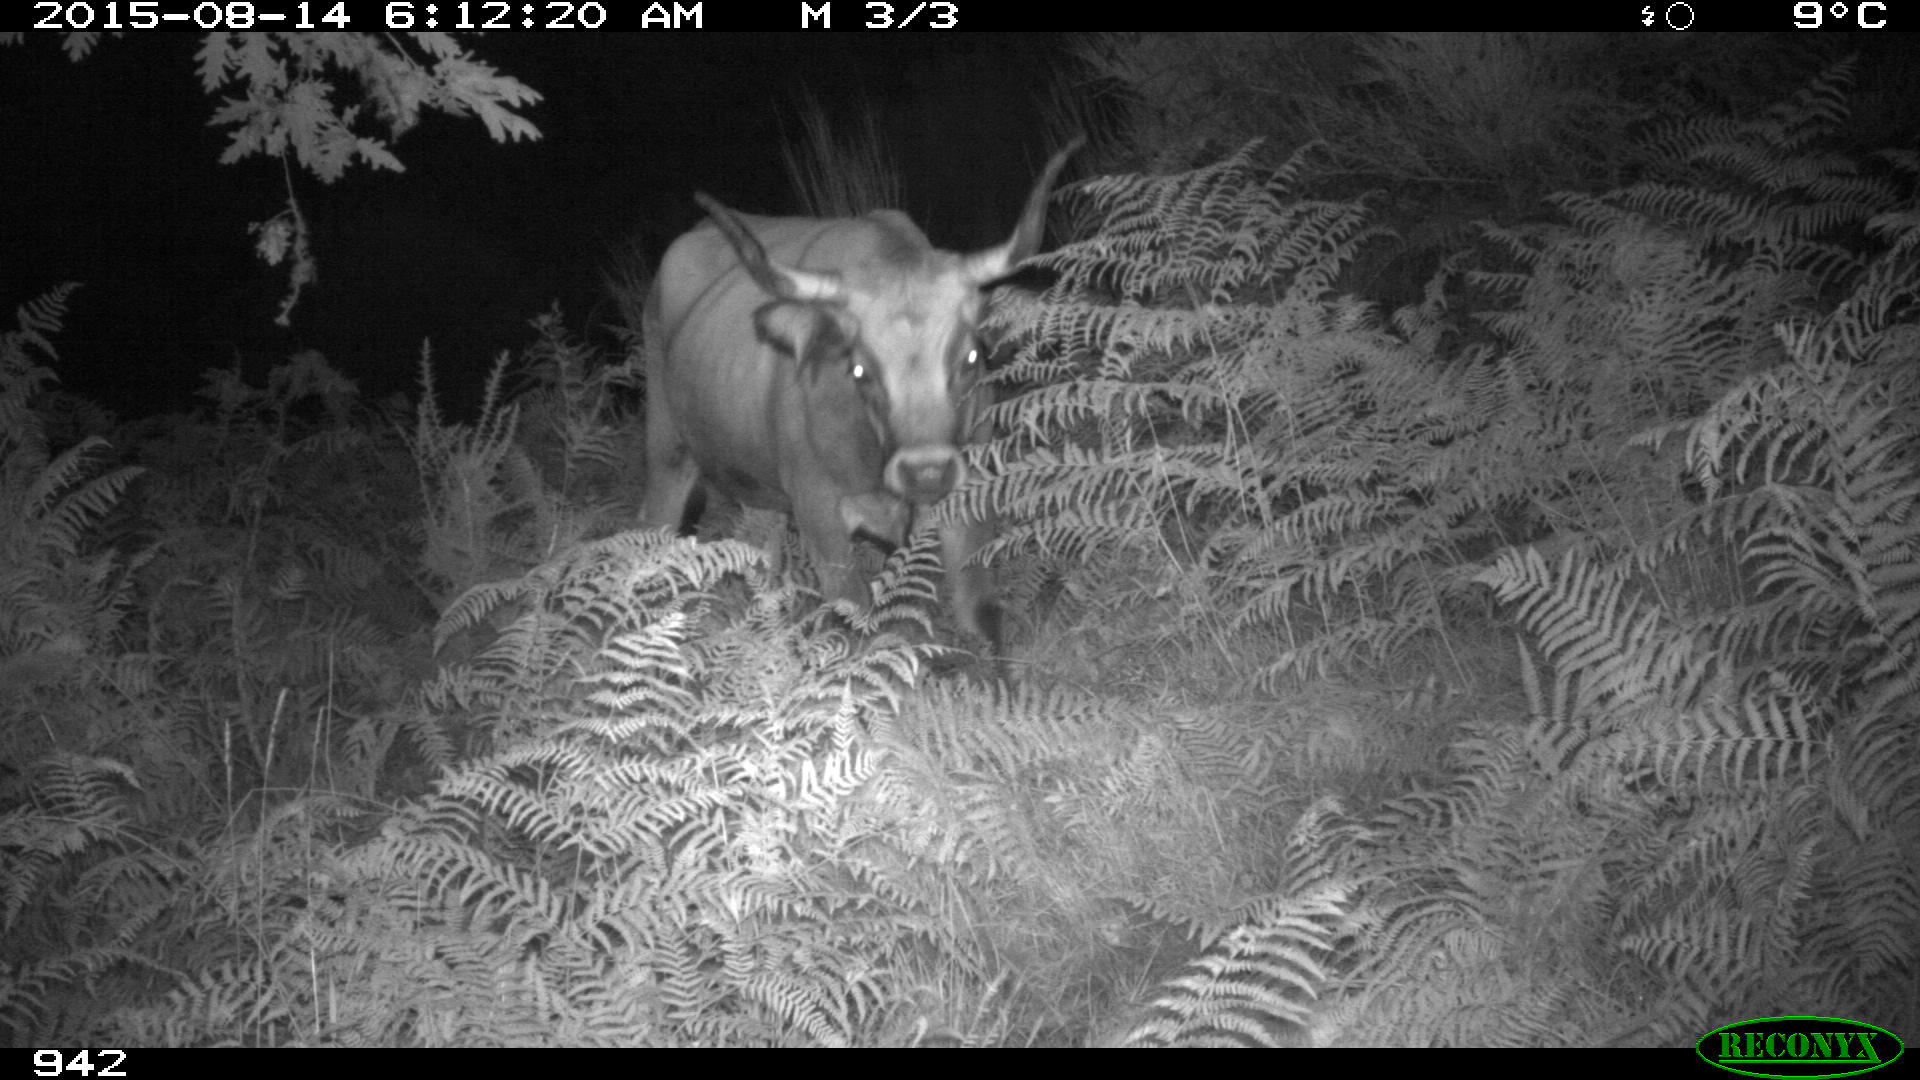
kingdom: Animalia
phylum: Chordata
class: Mammalia
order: Artiodactyla
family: Bovidae
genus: Bos
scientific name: Bos taurus
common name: Domesticated cattle
